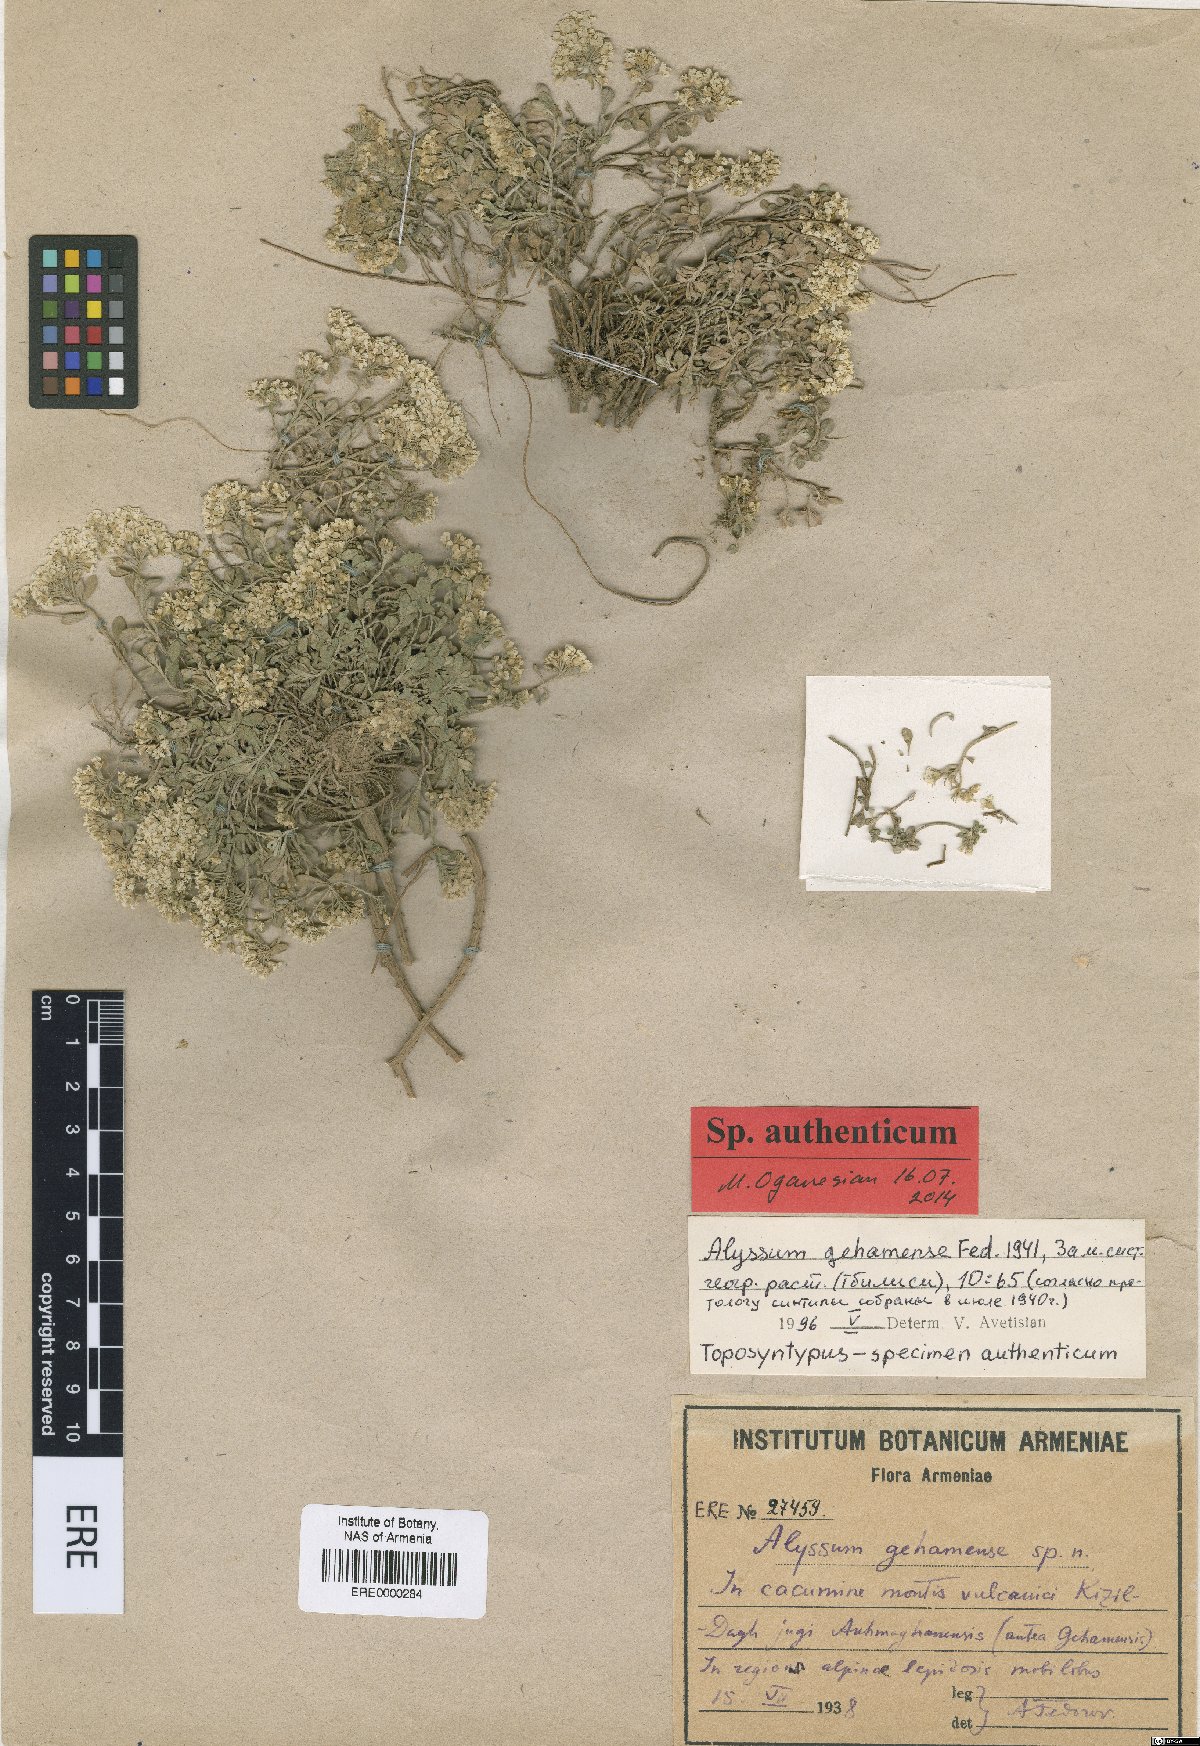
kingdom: Plantae
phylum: Tracheophyta
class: Magnoliopsida
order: Brassicales
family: Brassicaceae
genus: Odontarrhena
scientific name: Odontarrhena gehamensis
